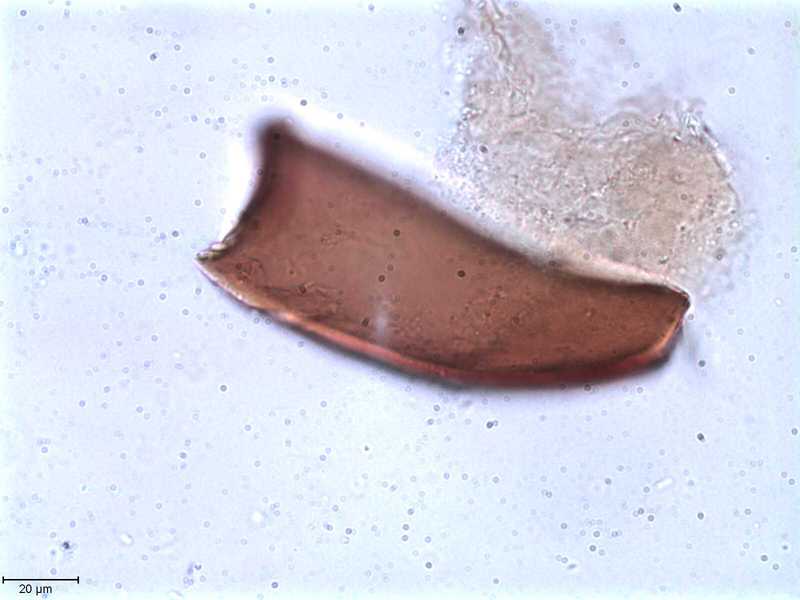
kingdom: Animalia
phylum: Arthropoda
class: Arachnida
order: Sarcoptiformes
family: Tegoribatidae
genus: Plakoribates
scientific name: Plakoribates multicuspidatus
